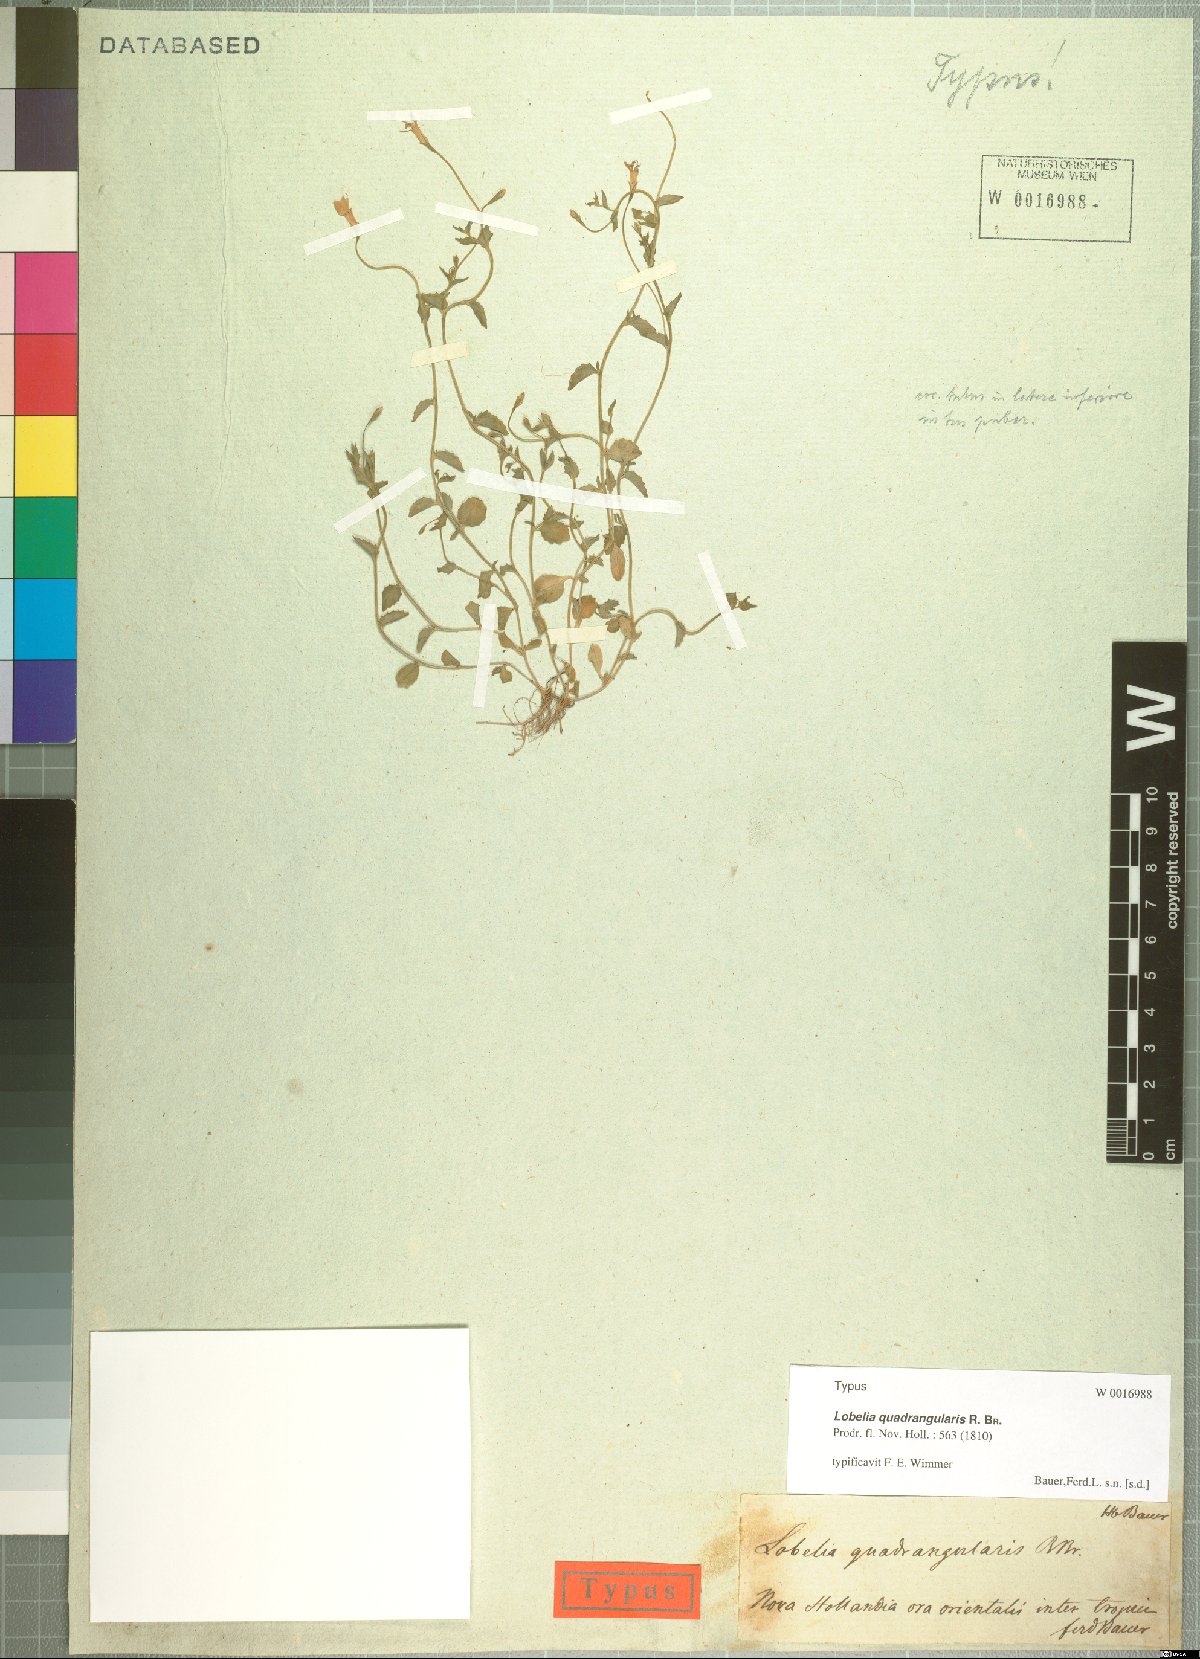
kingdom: Plantae
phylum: Tracheophyta
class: Magnoliopsida
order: Asterales
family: Campanulaceae
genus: Lobelia
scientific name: Lobelia quadrangularis
